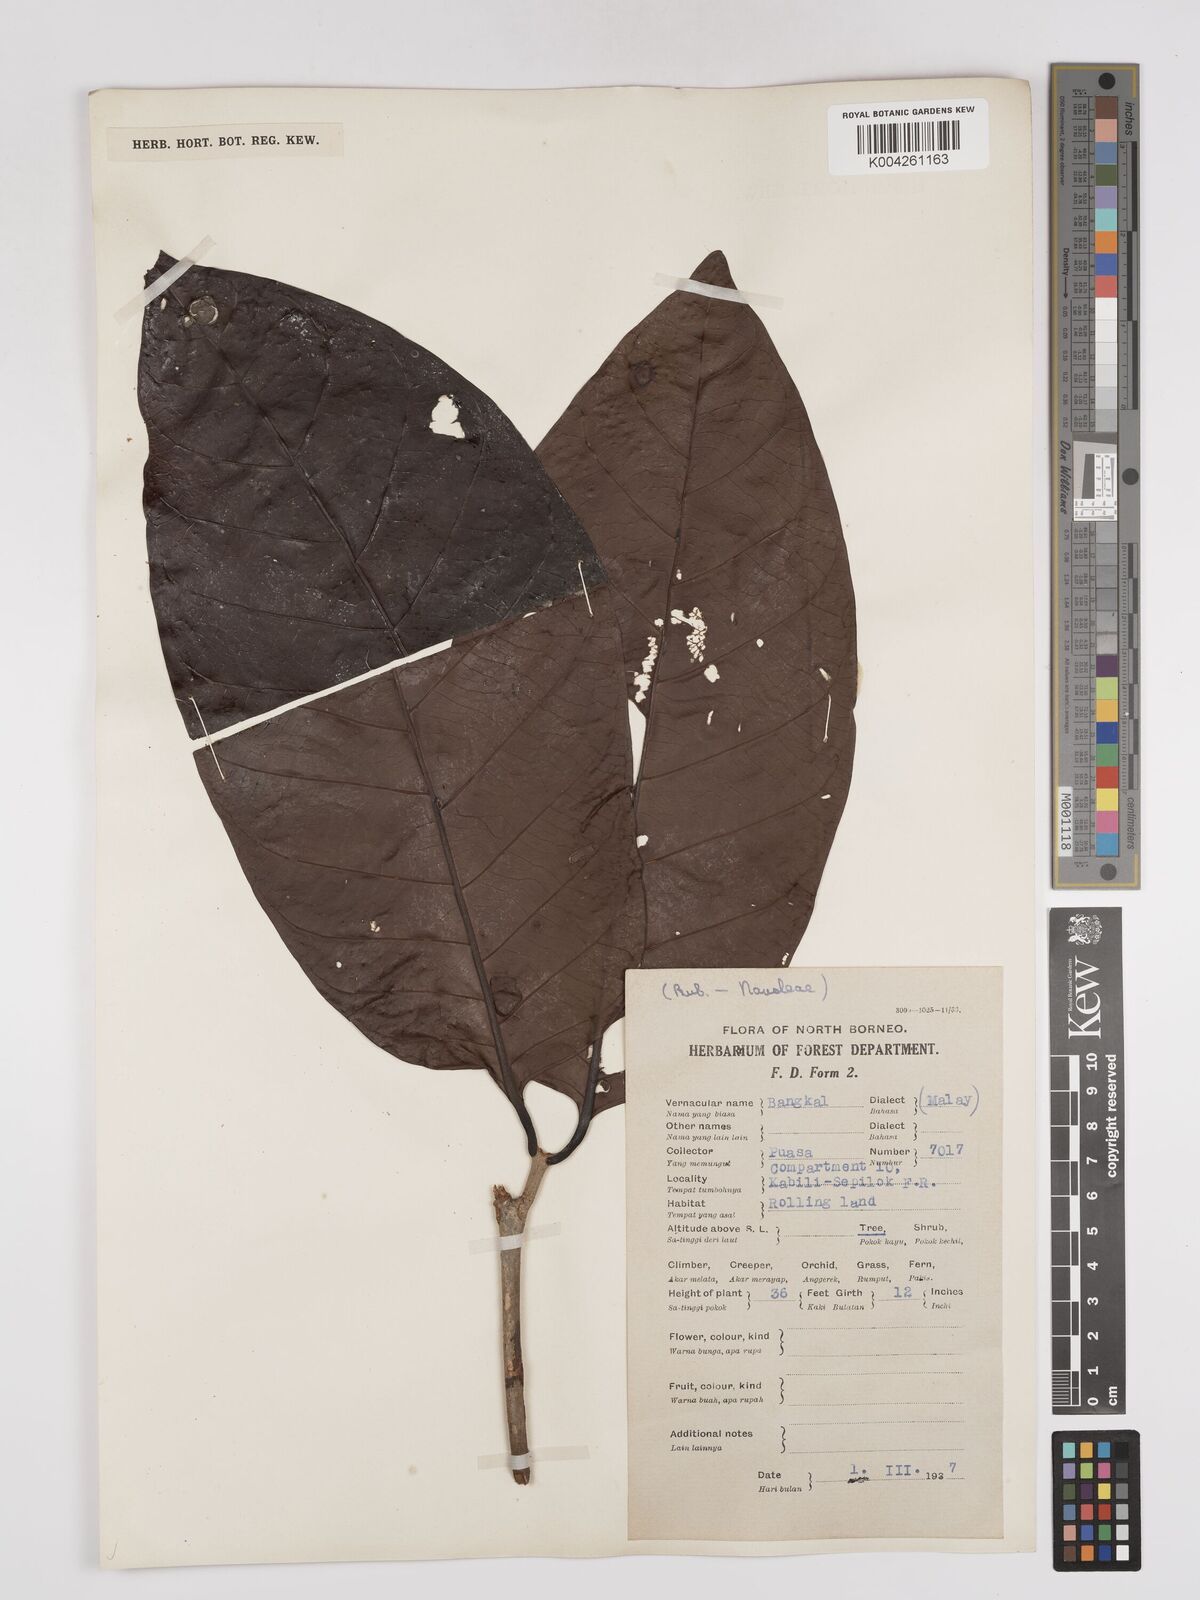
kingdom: Plantae
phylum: Tracheophyta
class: Magnoliopsida
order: Gentianales
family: Rubiaceae
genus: Neonauclea
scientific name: Neonauclea
